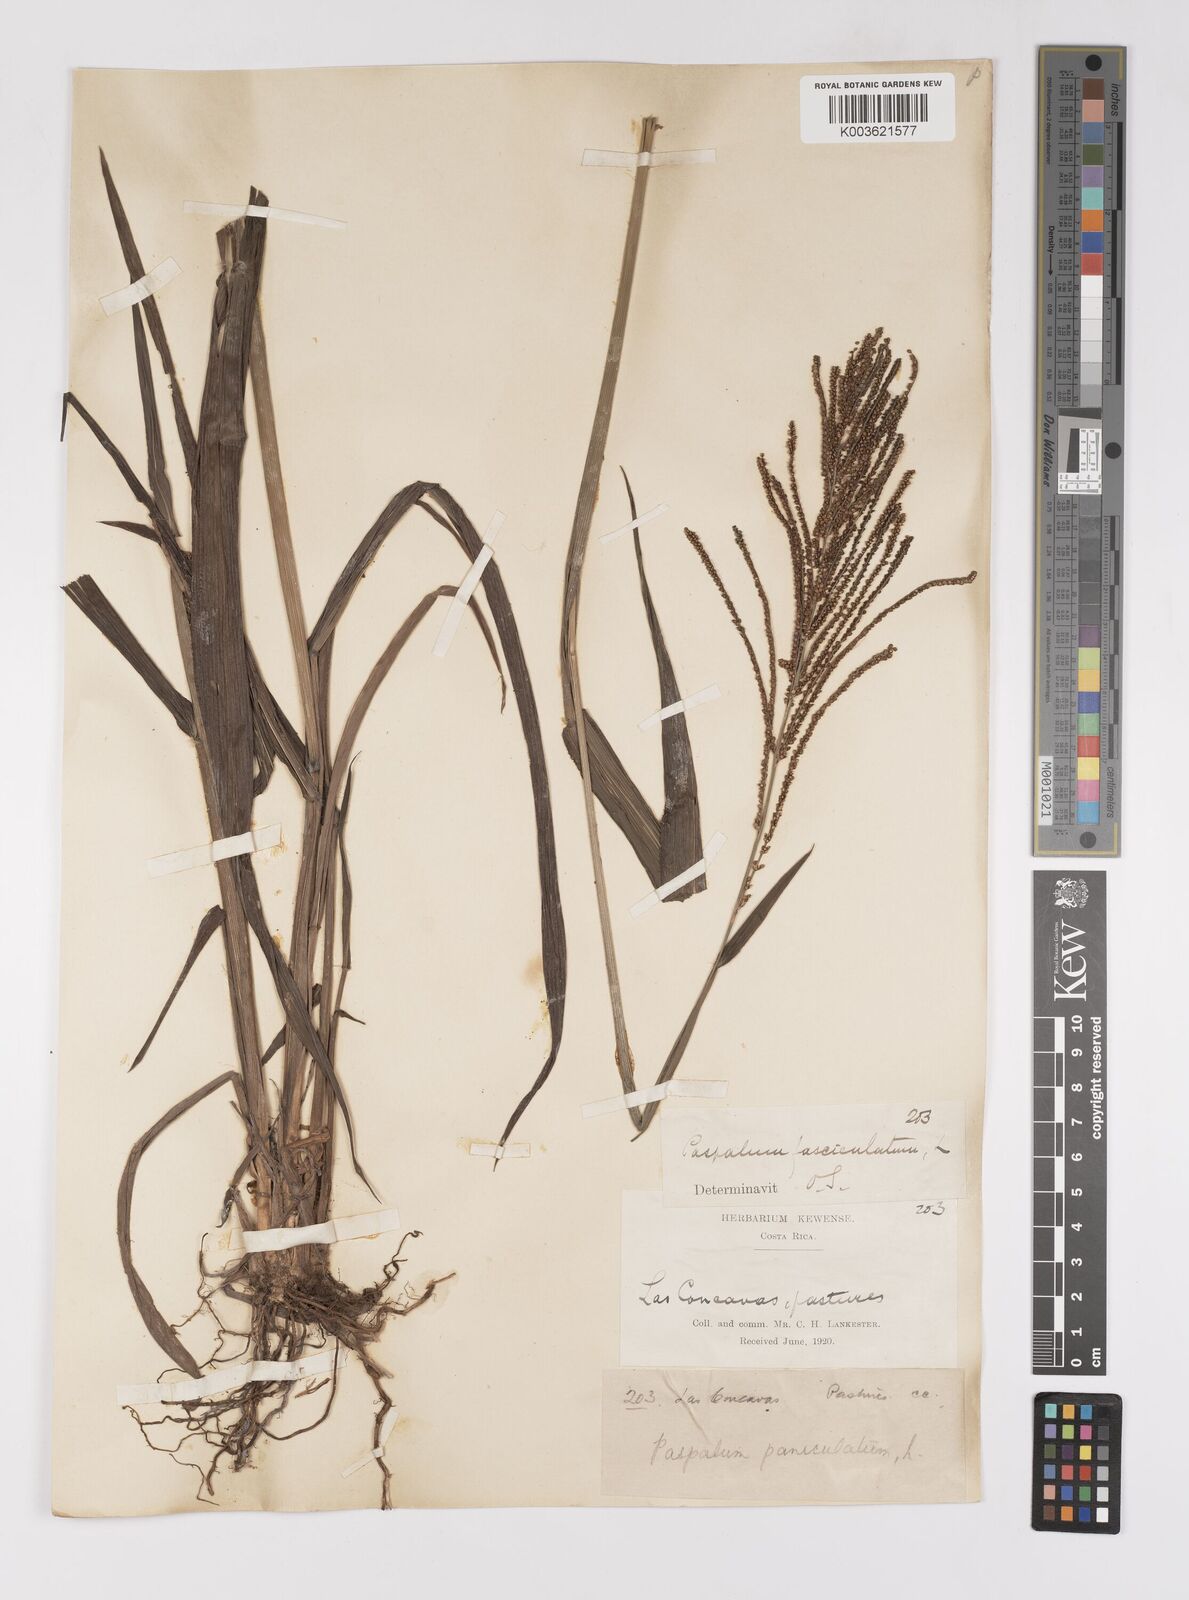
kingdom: Plantae
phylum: Tracheophyta
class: Liliopsida
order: Poales
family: Poaceae
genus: Paspalum
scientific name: Paspalum paniculatum
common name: Arrocillo
